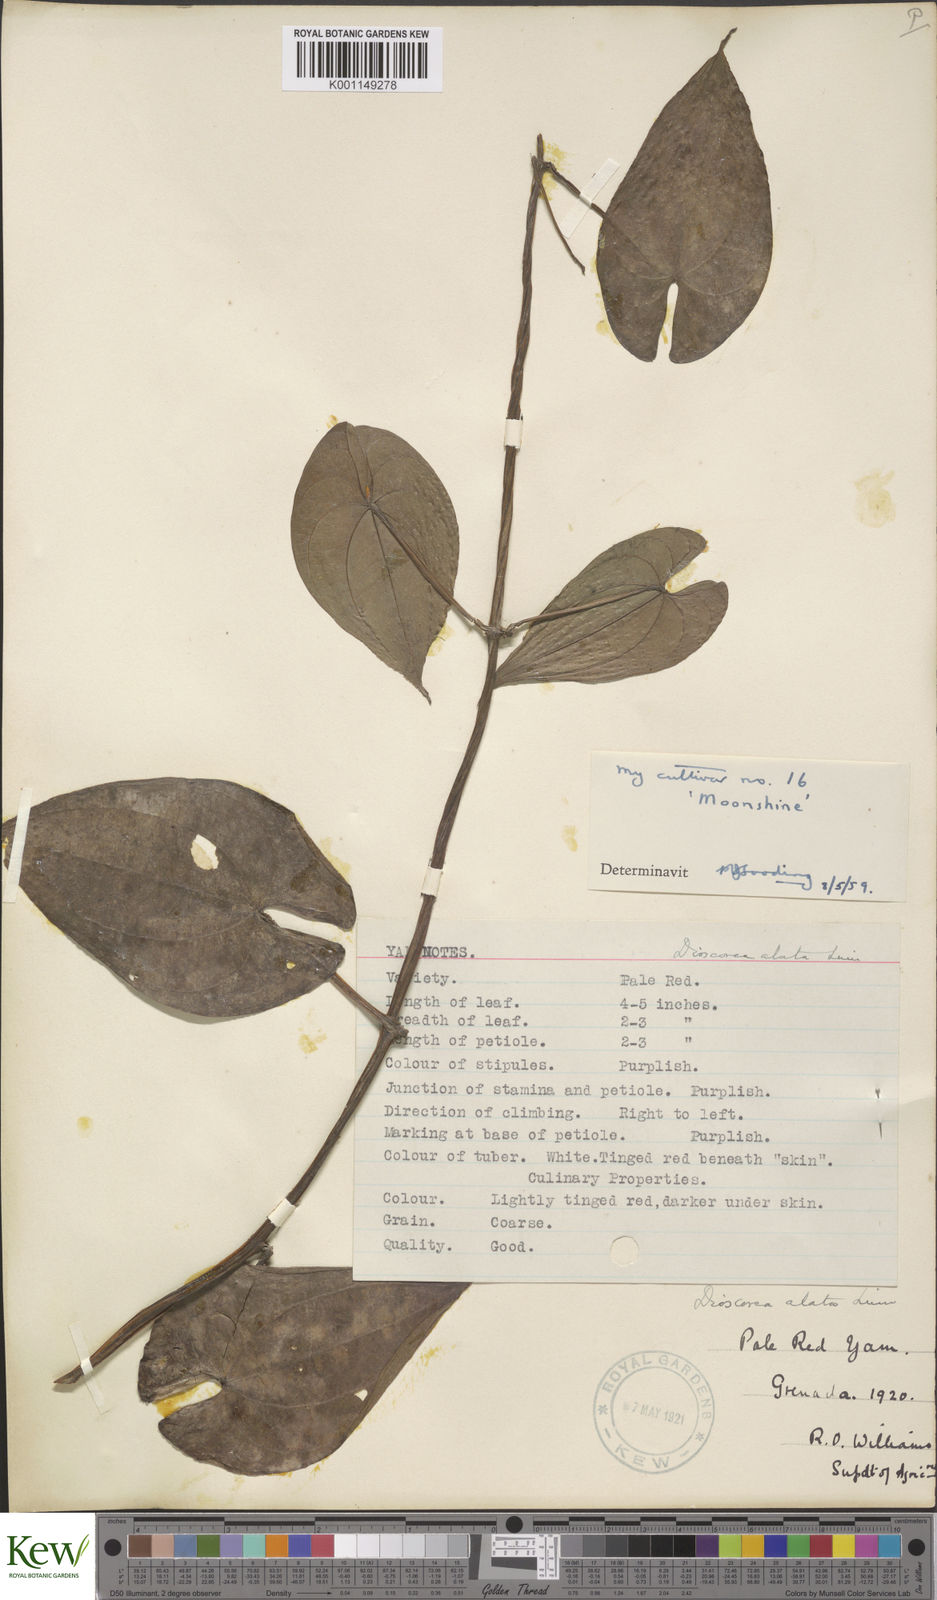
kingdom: Plantae
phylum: Tracheophyta
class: Liliopsida
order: Dioscoreales
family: Dioscoreaceae
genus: Dioscorea
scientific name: Dioscorea alata
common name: Water yam
